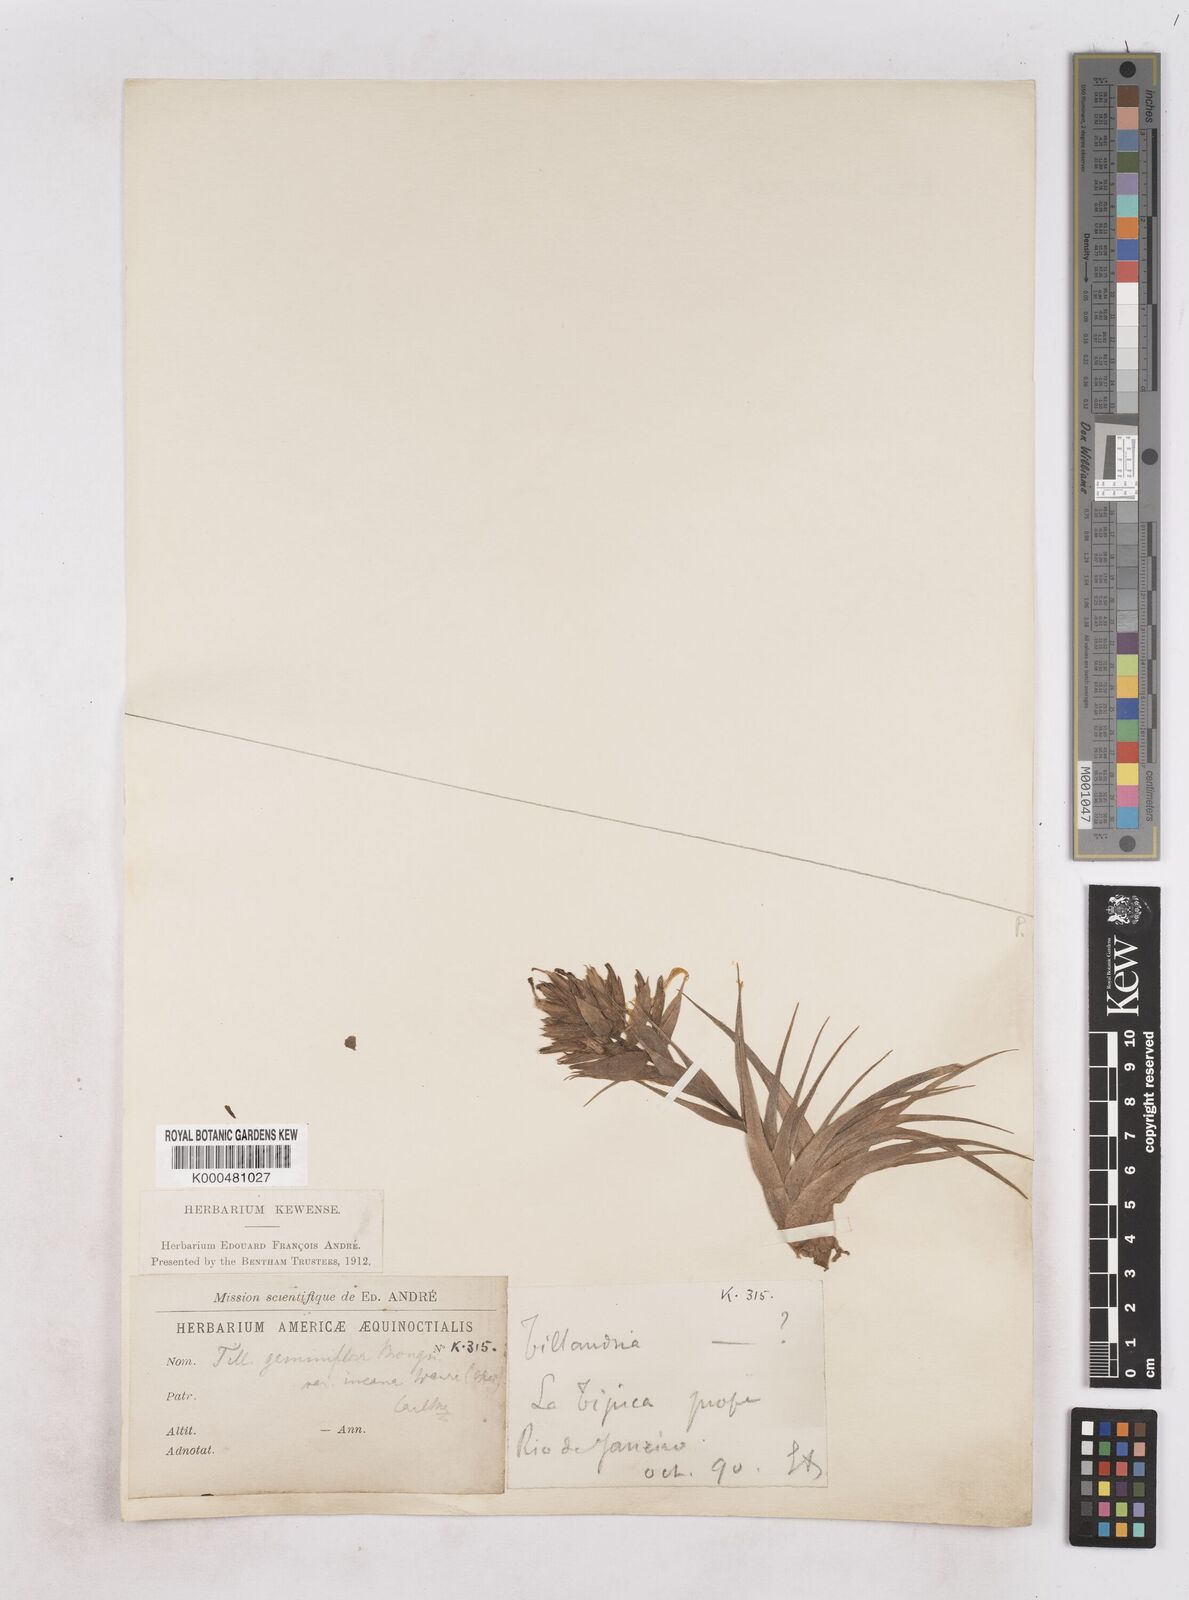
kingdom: Plantae
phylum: Tracheophyta
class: Liliopsida
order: Poales
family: Bromeliaceae
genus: Tillandsia
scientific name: Tillandsia geminiflora
